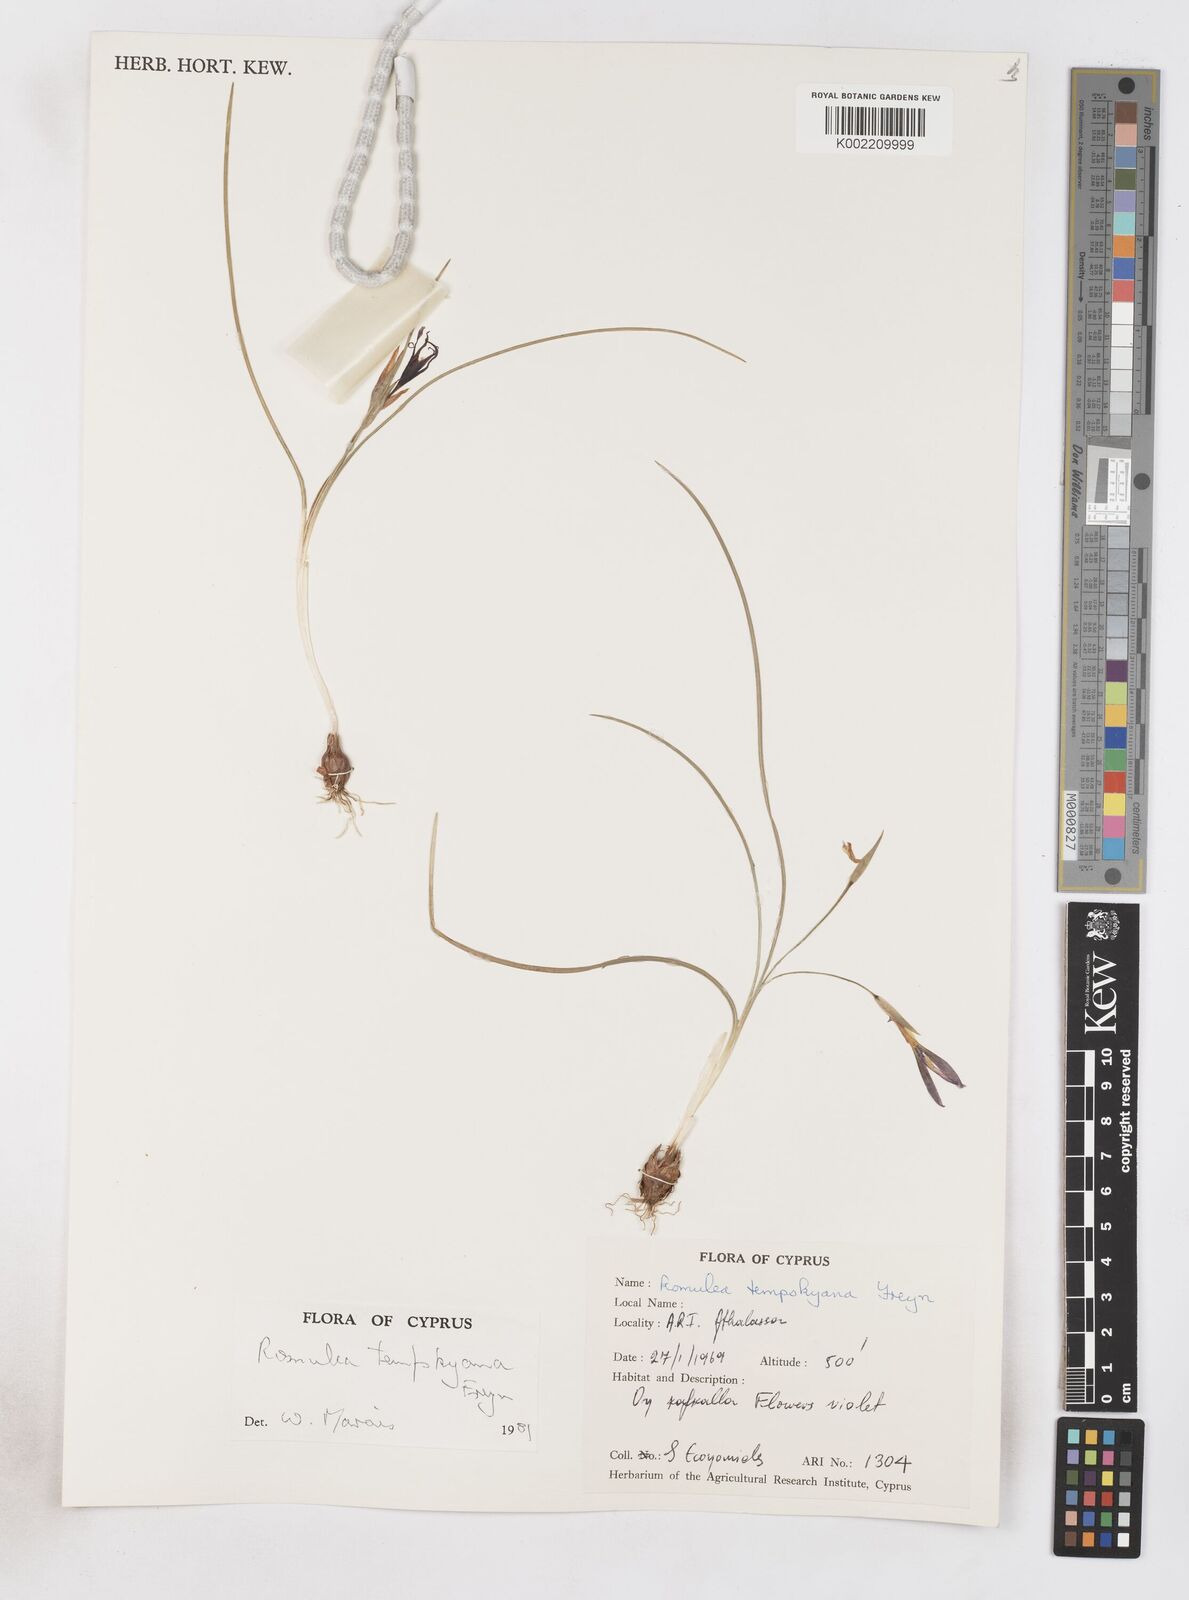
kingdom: Plantae
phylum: Tracheophyta
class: Liliopsida
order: Asparagales
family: Iridaceae
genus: Romulea
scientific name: Romulea tempskyana
